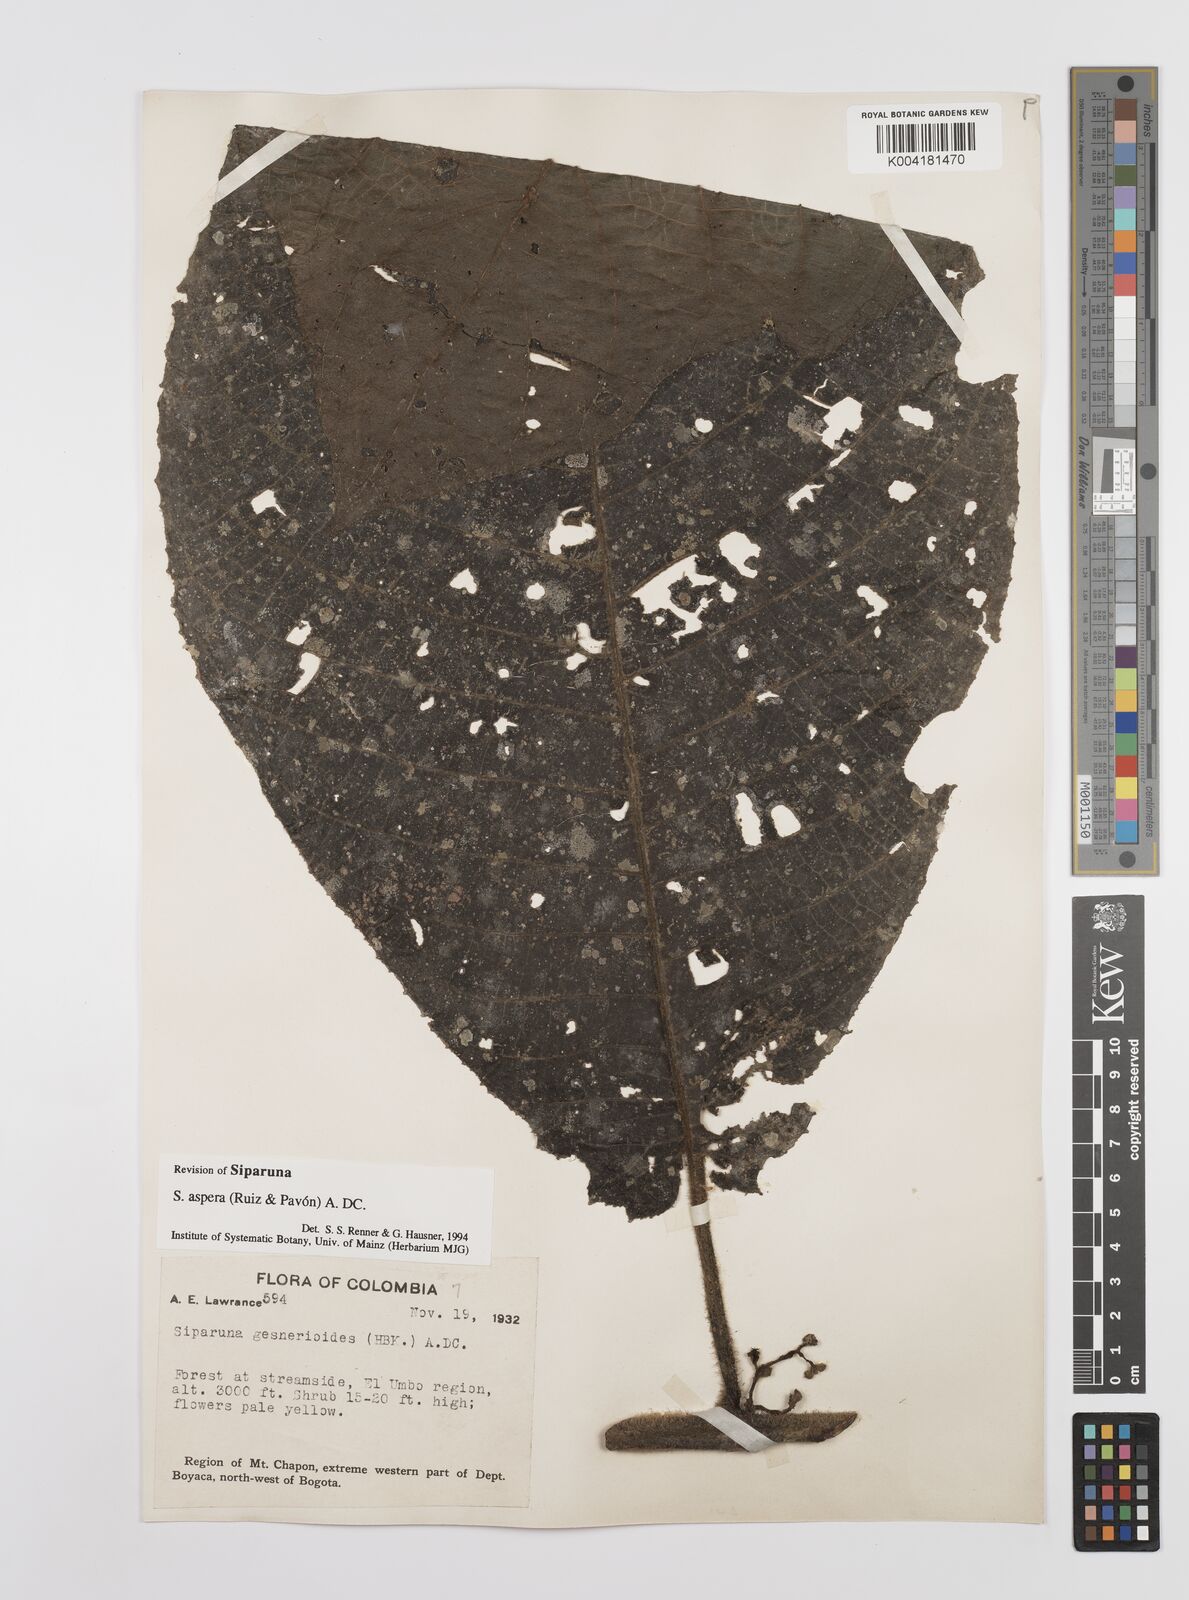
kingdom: Plantae
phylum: Tracheophyta
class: Magnoliopsida
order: Laurales
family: Siparunaceae
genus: Siparuna
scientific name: Siparuna aspera
